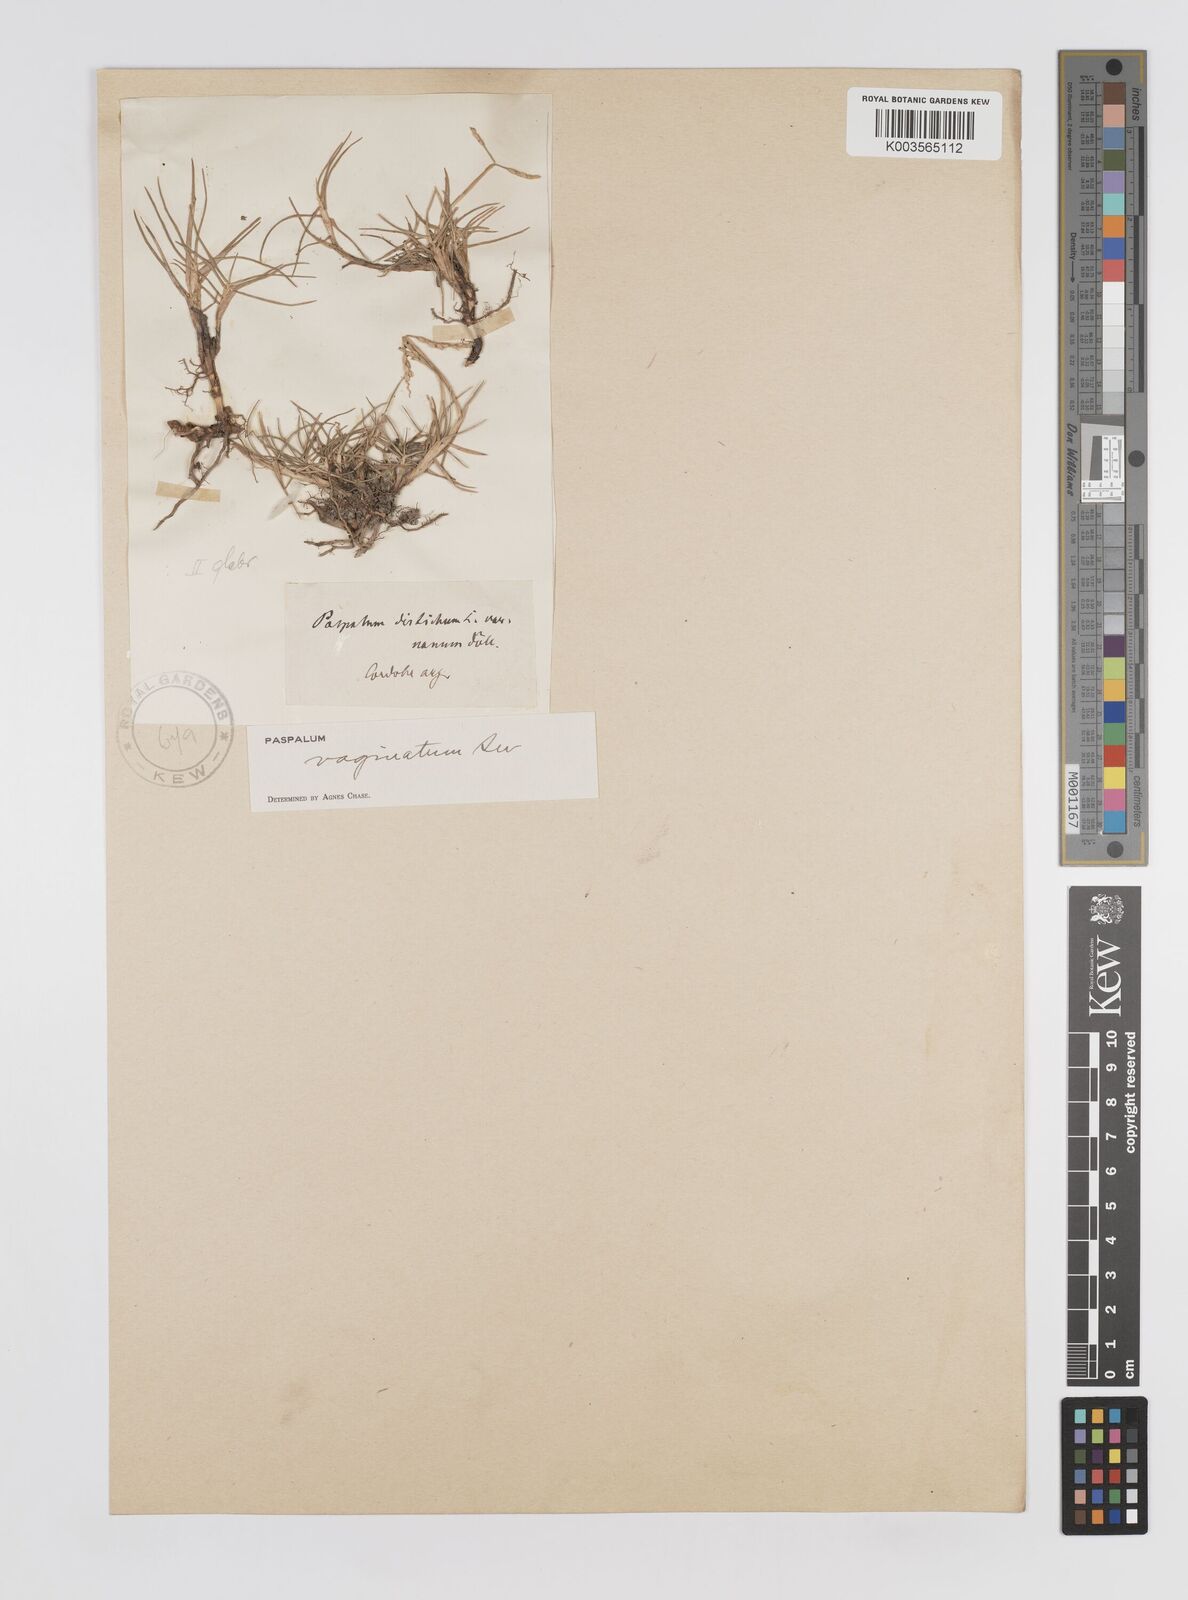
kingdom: Plantae
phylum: Tracheophyta
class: Liliopsida
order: Poales
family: Poaceae
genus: Paspalum
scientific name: Paspalum vaginatum
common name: Seashore paspalum
